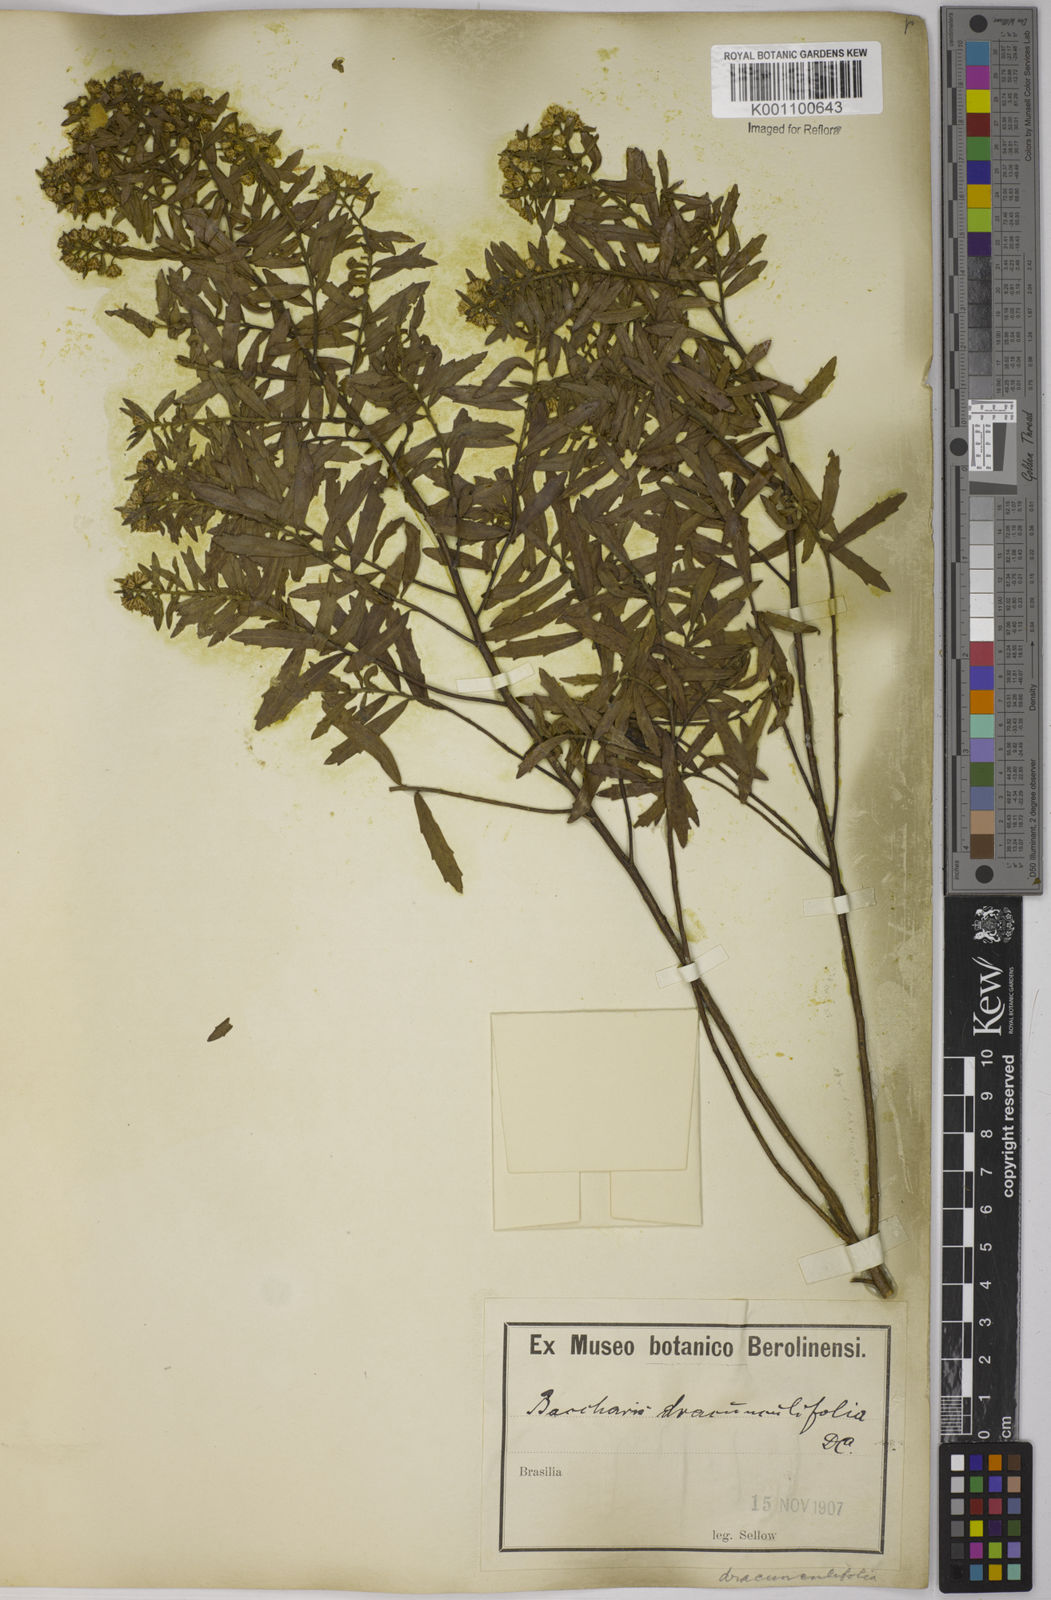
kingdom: Plantae
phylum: Tracheophyta
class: Magnoliopsida
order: Asterales
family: Asteraceae
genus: Baccharis
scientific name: Baccharis dracunculifolia
